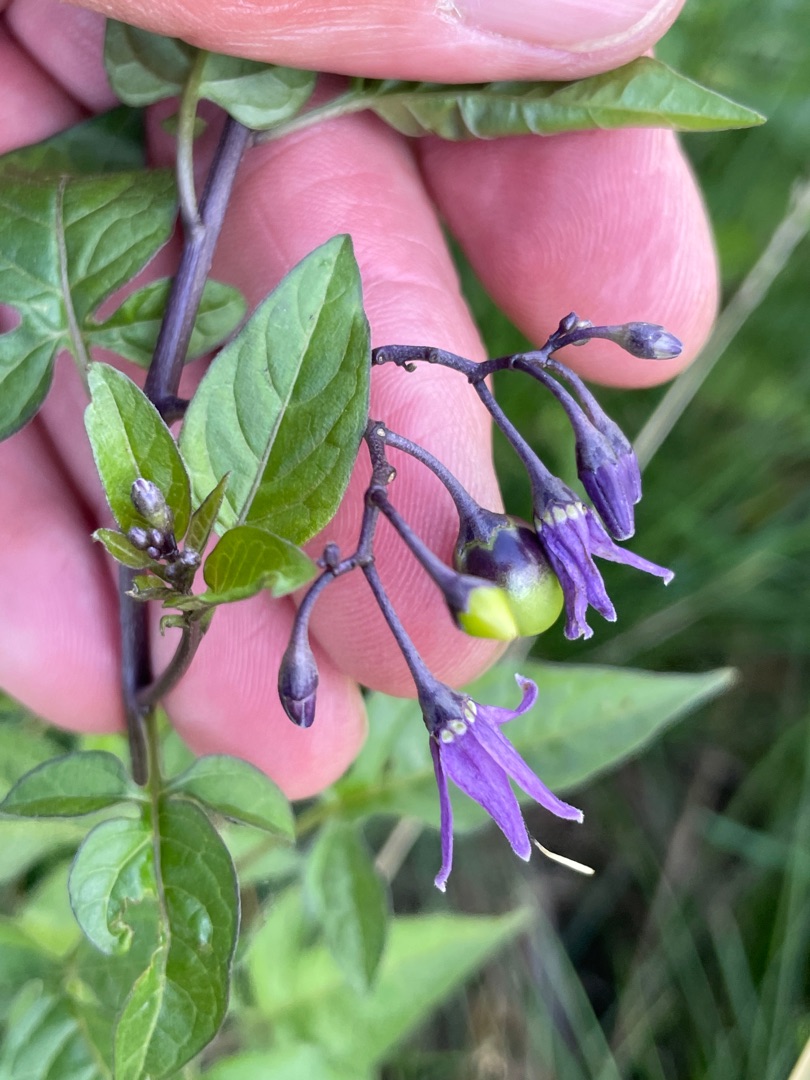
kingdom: Plantae
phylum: Tracheophyta
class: Magnoliopsida
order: Solanales
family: Solanaceae
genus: Solanum
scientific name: Solanum dulcamara
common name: Bittersød natskygge
